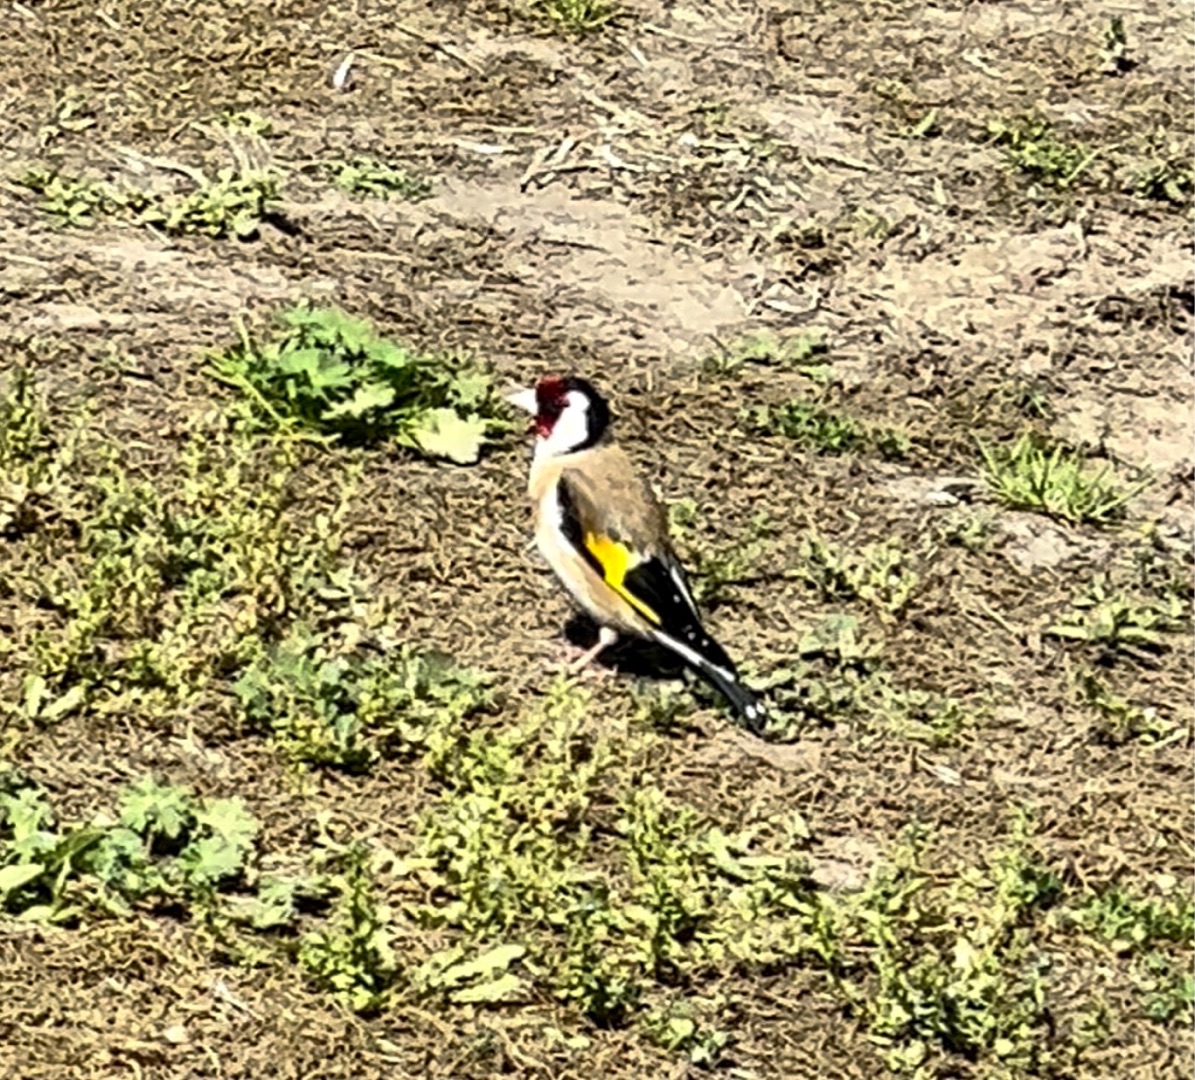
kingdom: Animalia
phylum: Chordata
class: Aves
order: Passeriformes
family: Fringillidae
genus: Carduelis
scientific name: Carduelis carduelis
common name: Stillits
